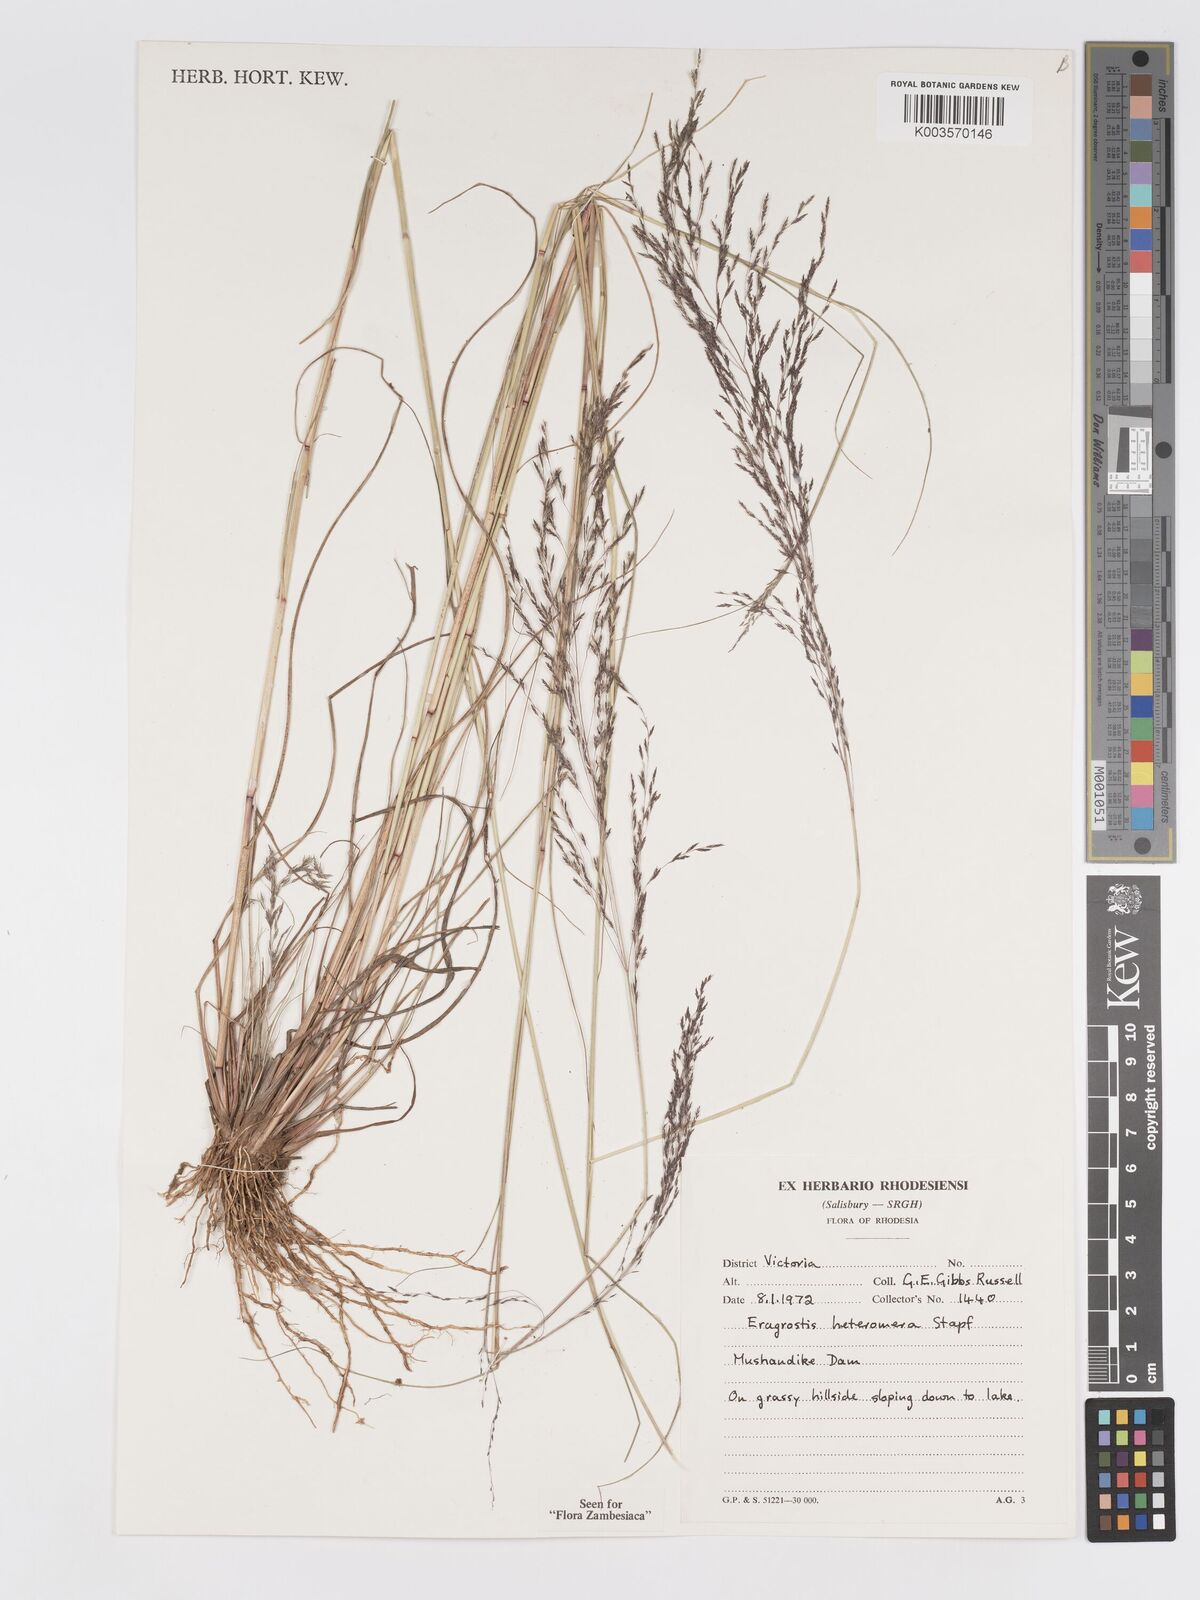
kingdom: Plantae
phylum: Tracheophyta
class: Liliopsida
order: Poales
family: Poaceae
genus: Eragrostis
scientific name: Eragrostis heteromera
